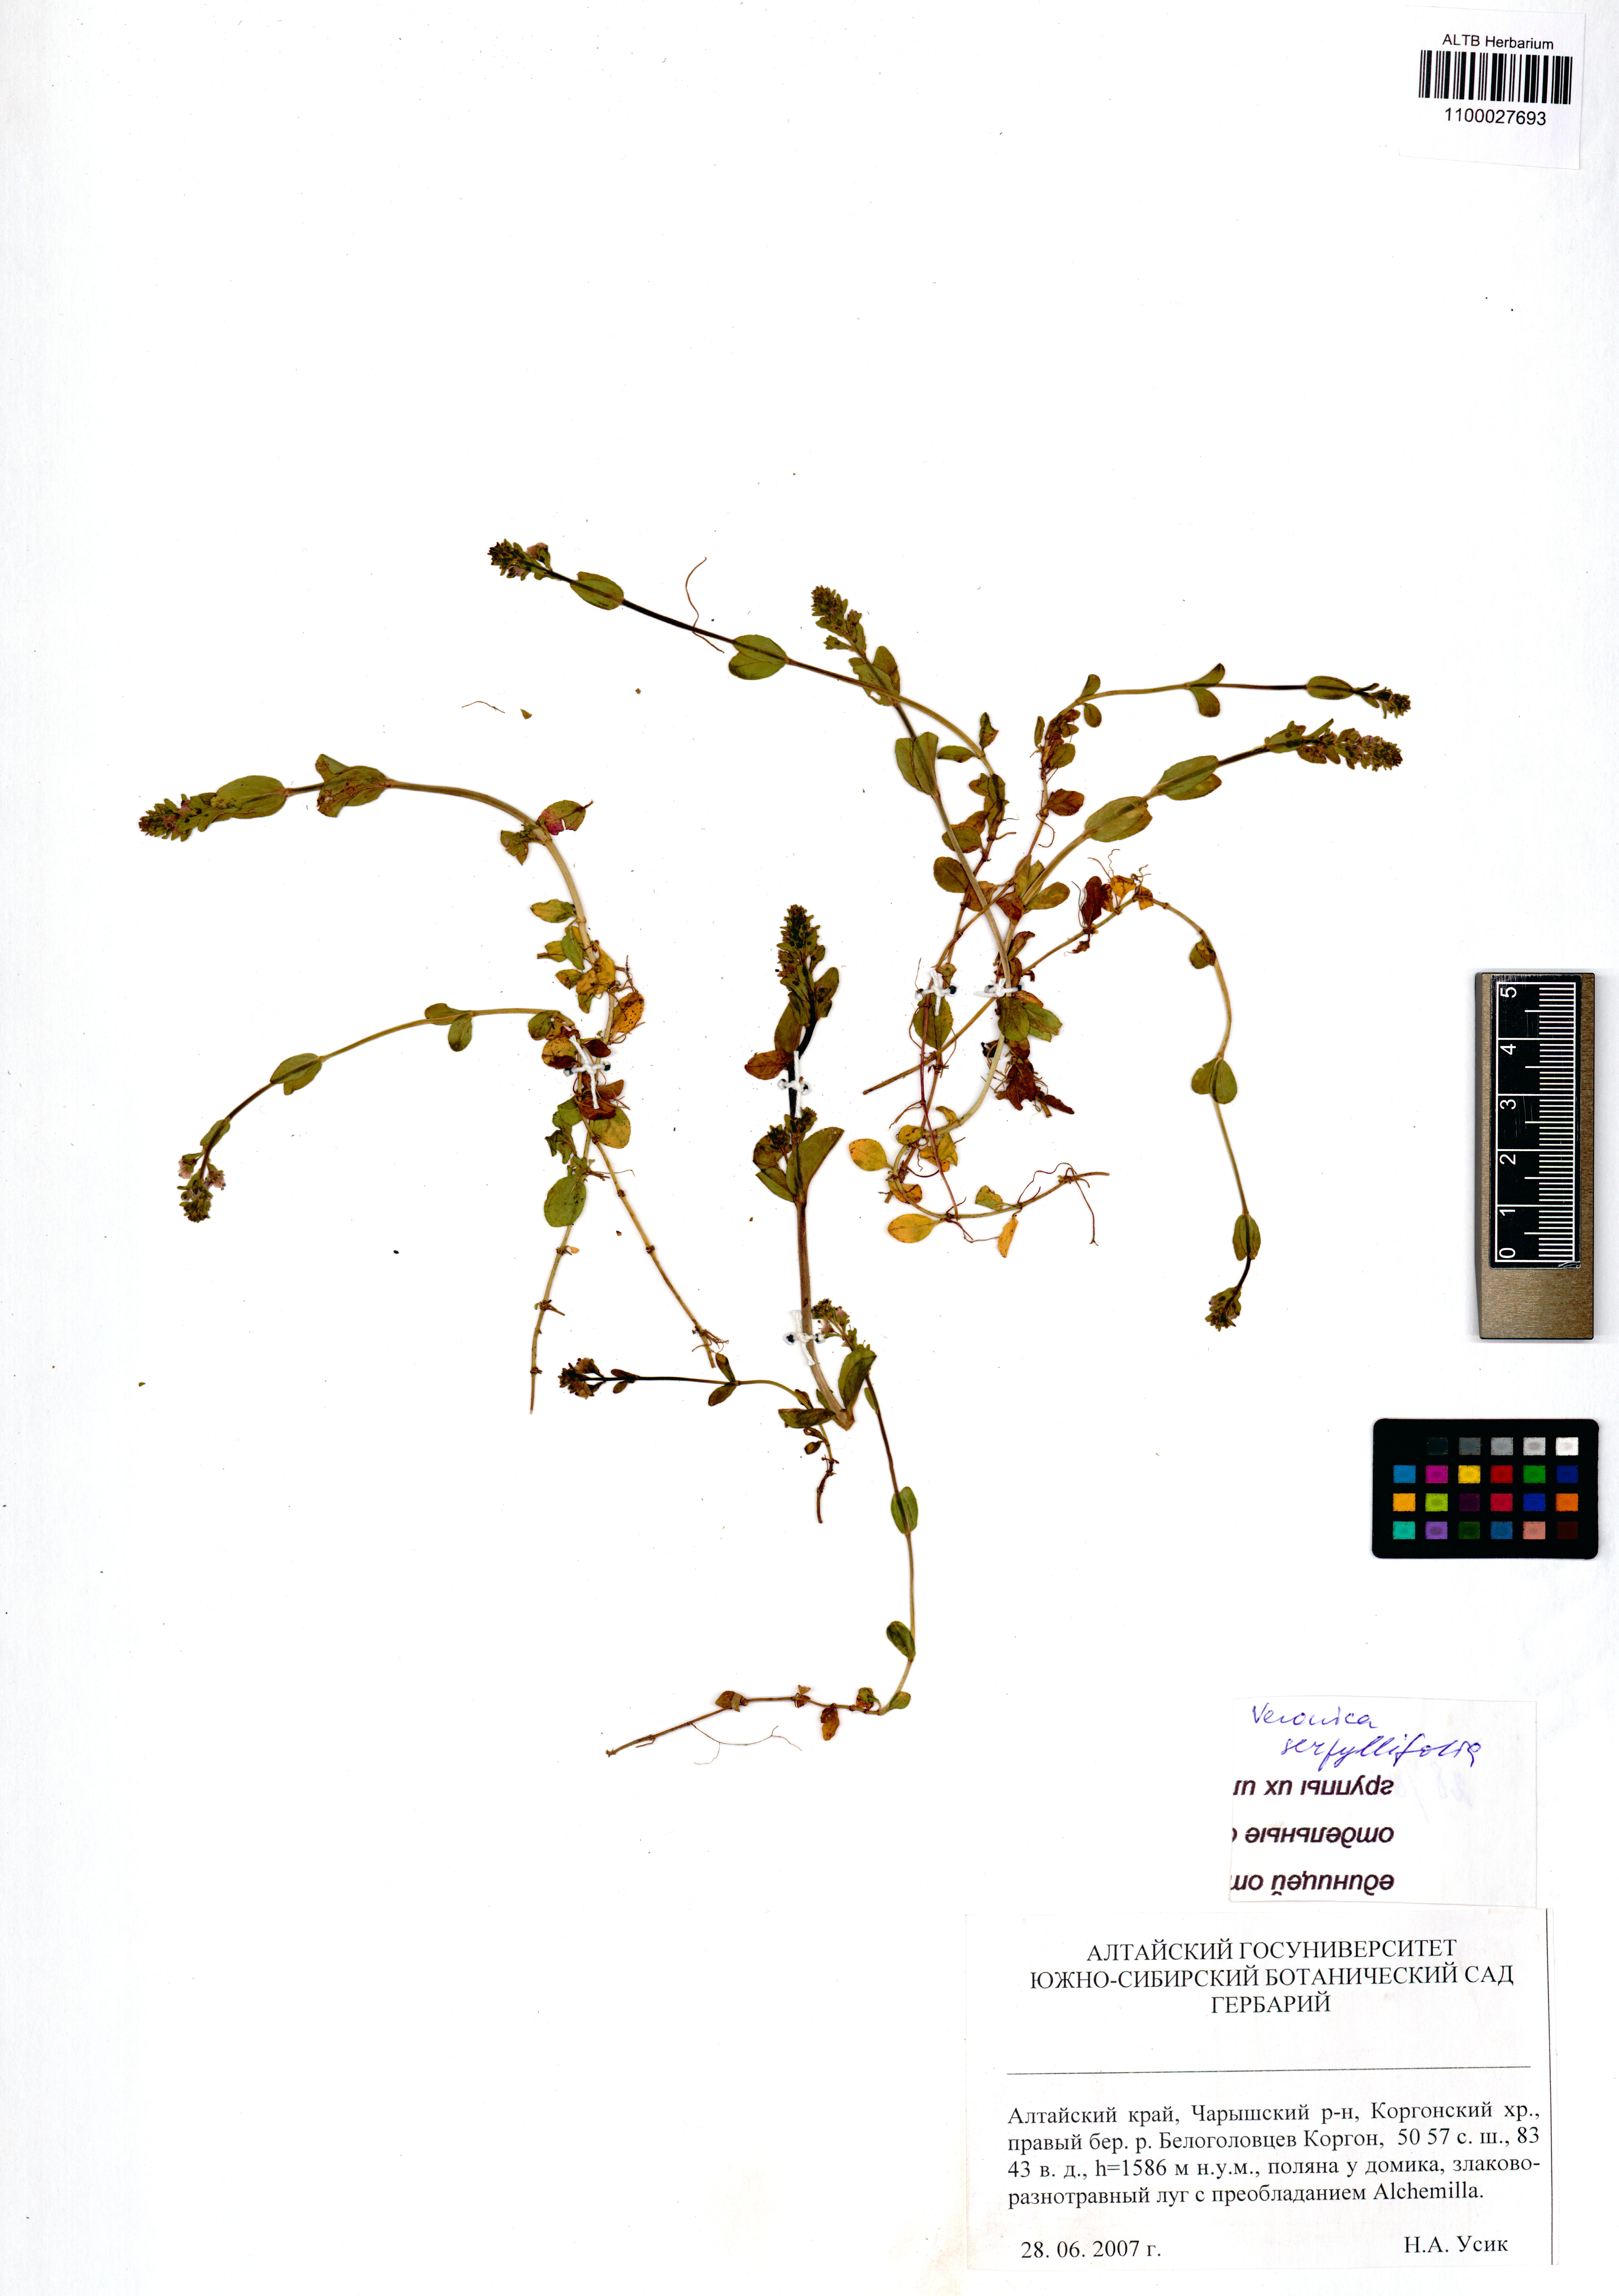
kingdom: Plantae
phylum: Tracheophyta
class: Magnoliopsida
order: Lamiales
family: Plantaginaceae
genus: Veronica
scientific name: Veronica serpyllifolia
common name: Thyme-leaved speedwell
